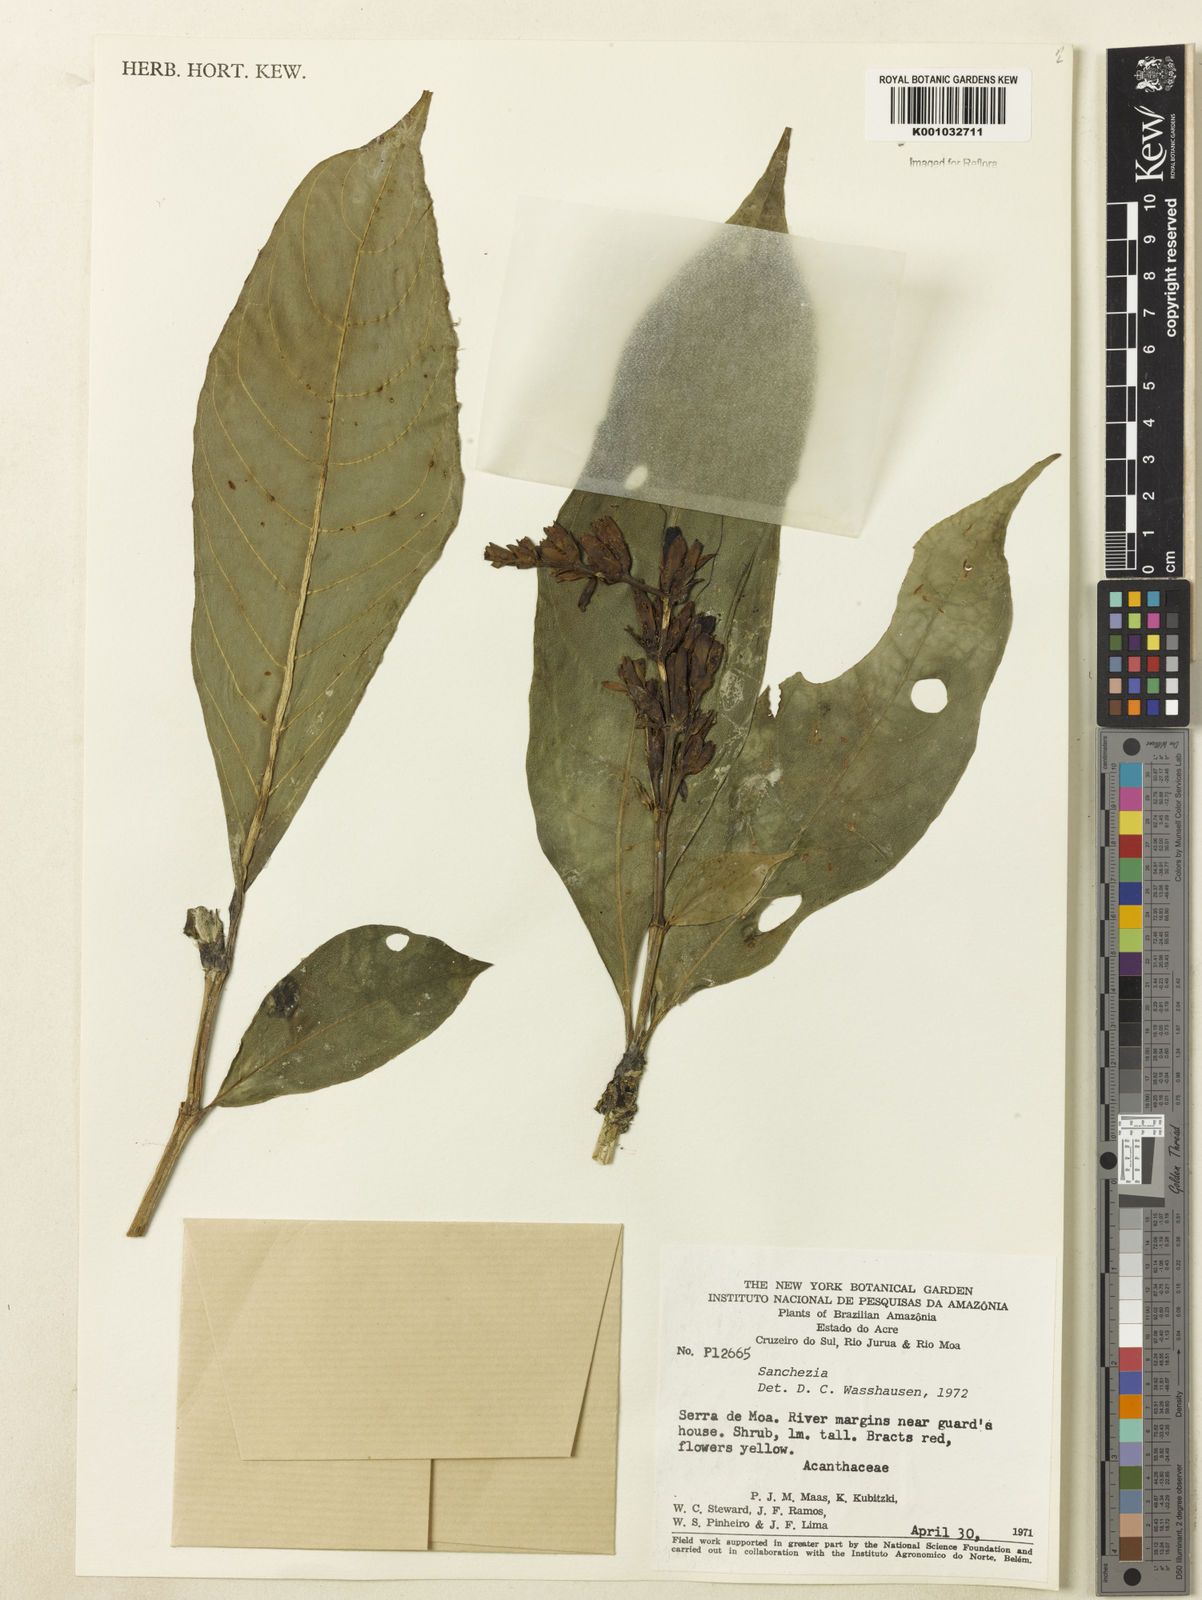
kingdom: Plantae
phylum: Tracheophyta
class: Magnoliopsida
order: Lamiales
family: Acanthaceae
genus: Sanchezia
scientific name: Sanchezia
